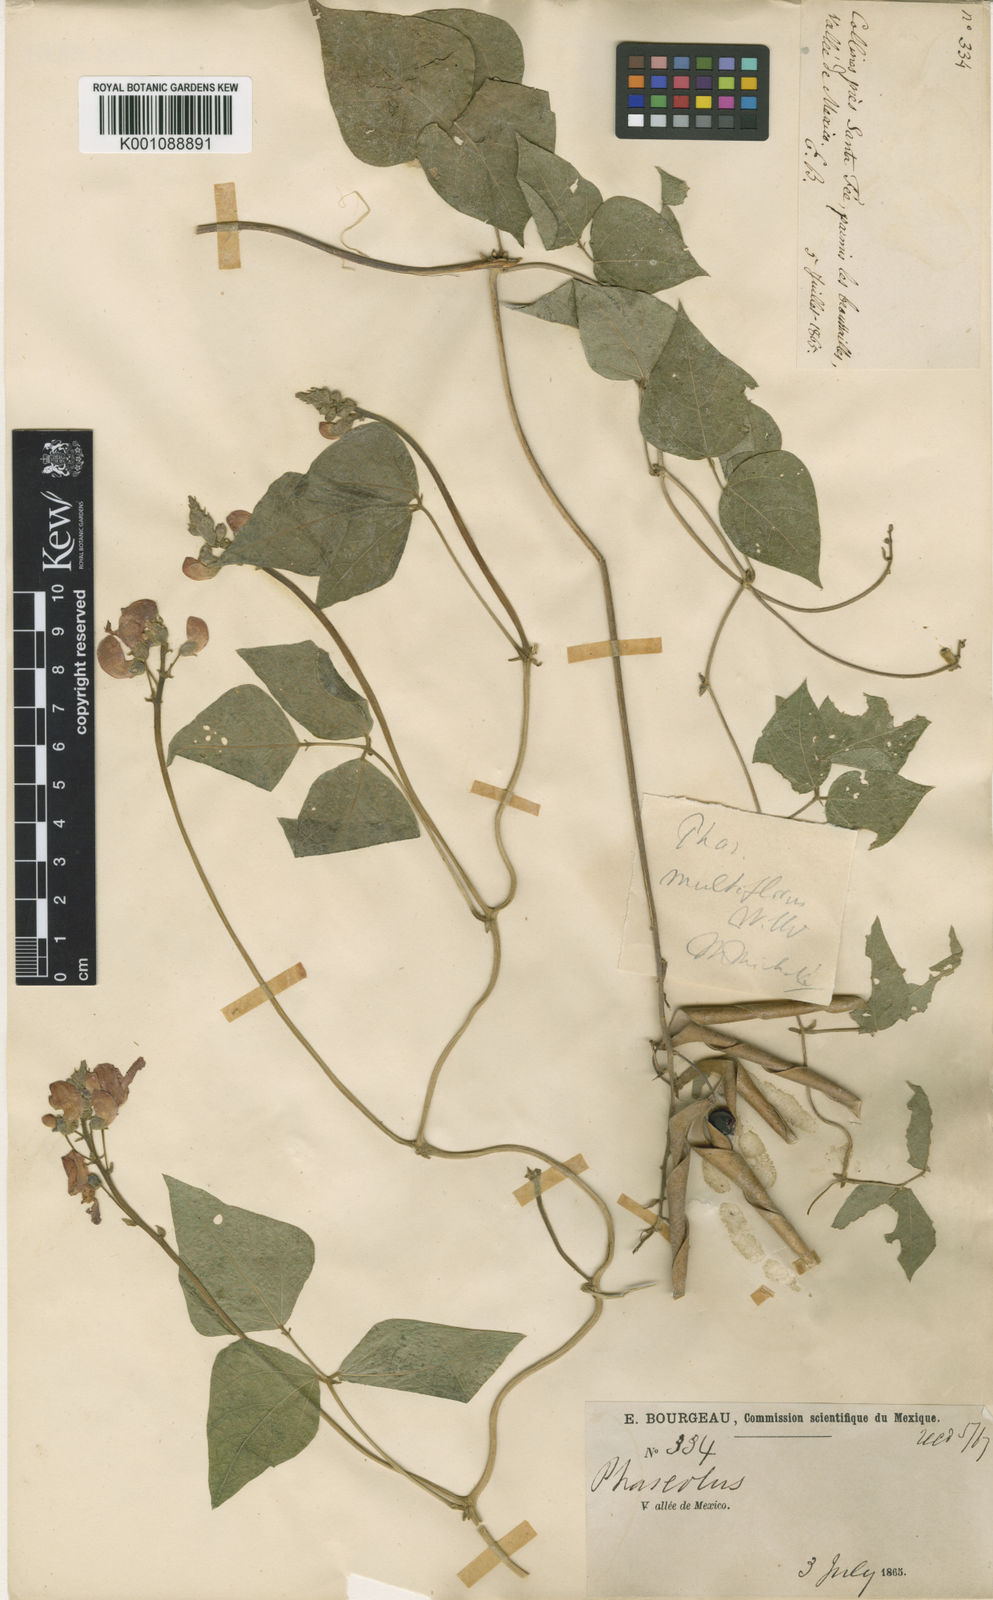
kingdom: Plantae
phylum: Tracheophyta
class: Magnoliopsida
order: Fabales
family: Fabaceae
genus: Phaseolus
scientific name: Phaseolus coccineus
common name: Runner bean
